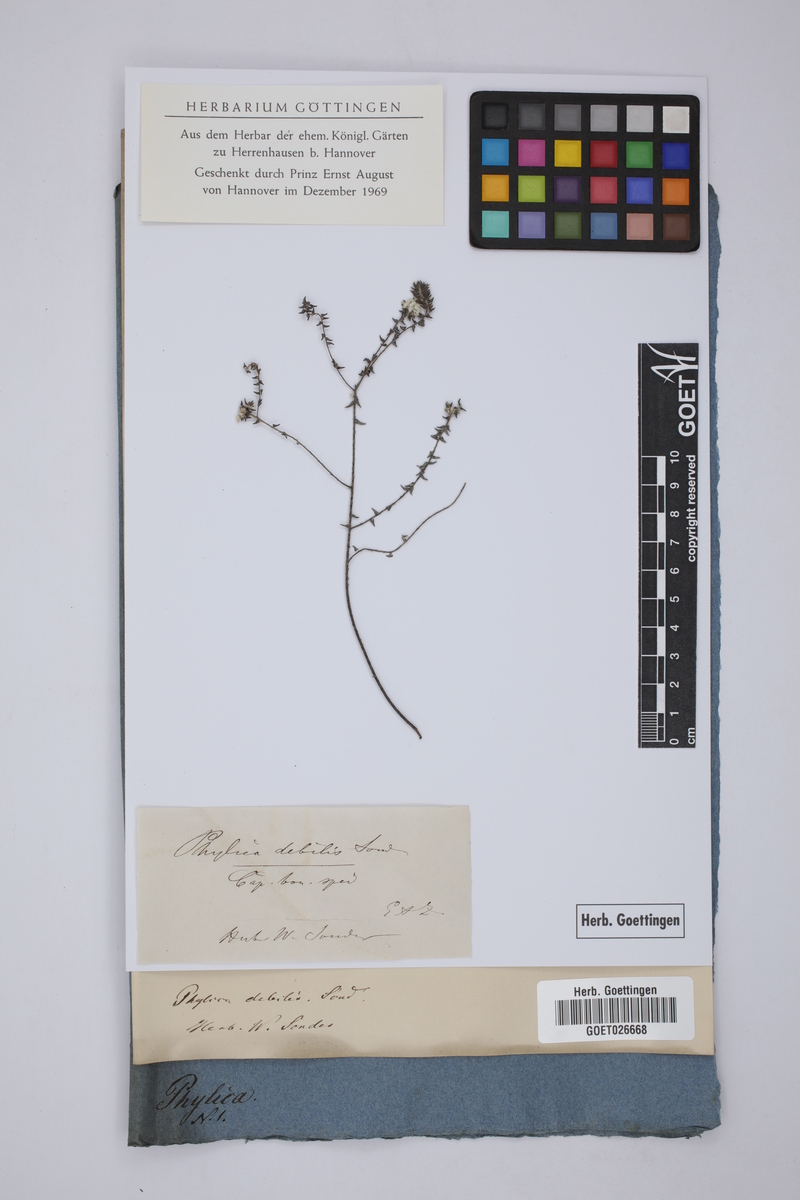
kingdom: Plantae
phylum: Tracheophyta
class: Magnoliopsida
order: Rosales
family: Rhamnaceae
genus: Phylica
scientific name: Phylica debilis
